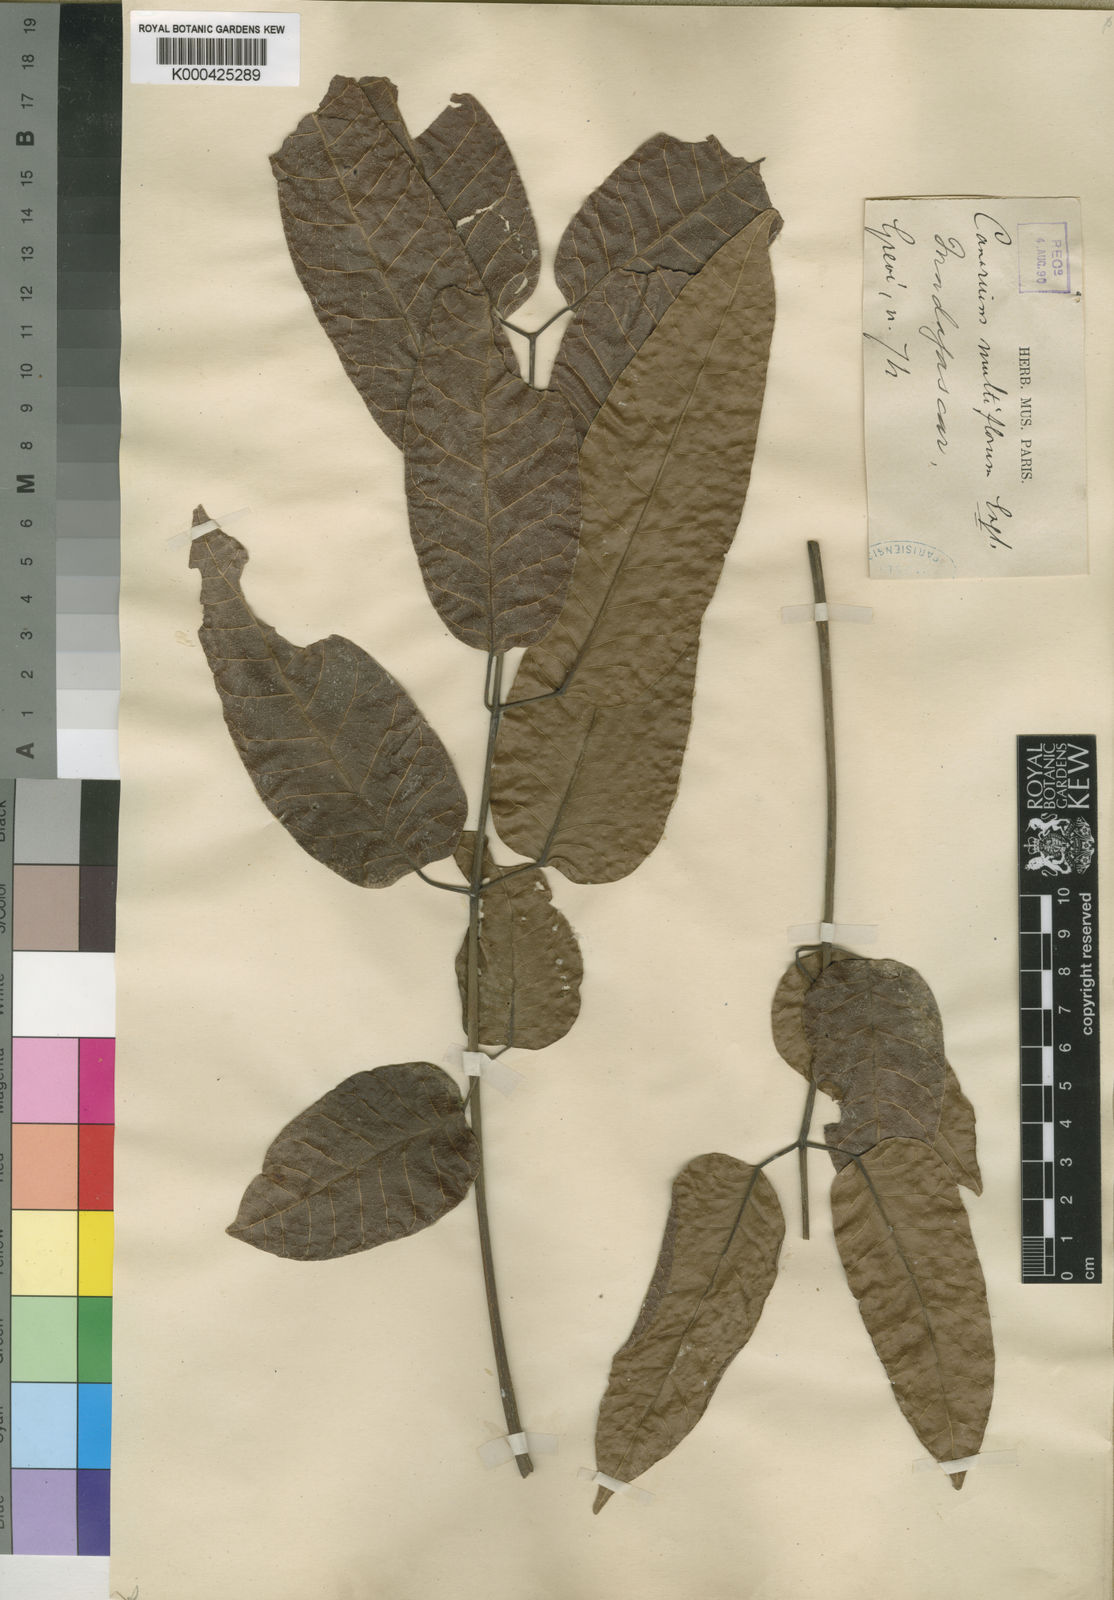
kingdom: Plantae
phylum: Tracheophyta
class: Magnoliopsida
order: Sapindales
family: Burseraceae
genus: Canarium
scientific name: Canarium madagascariense
